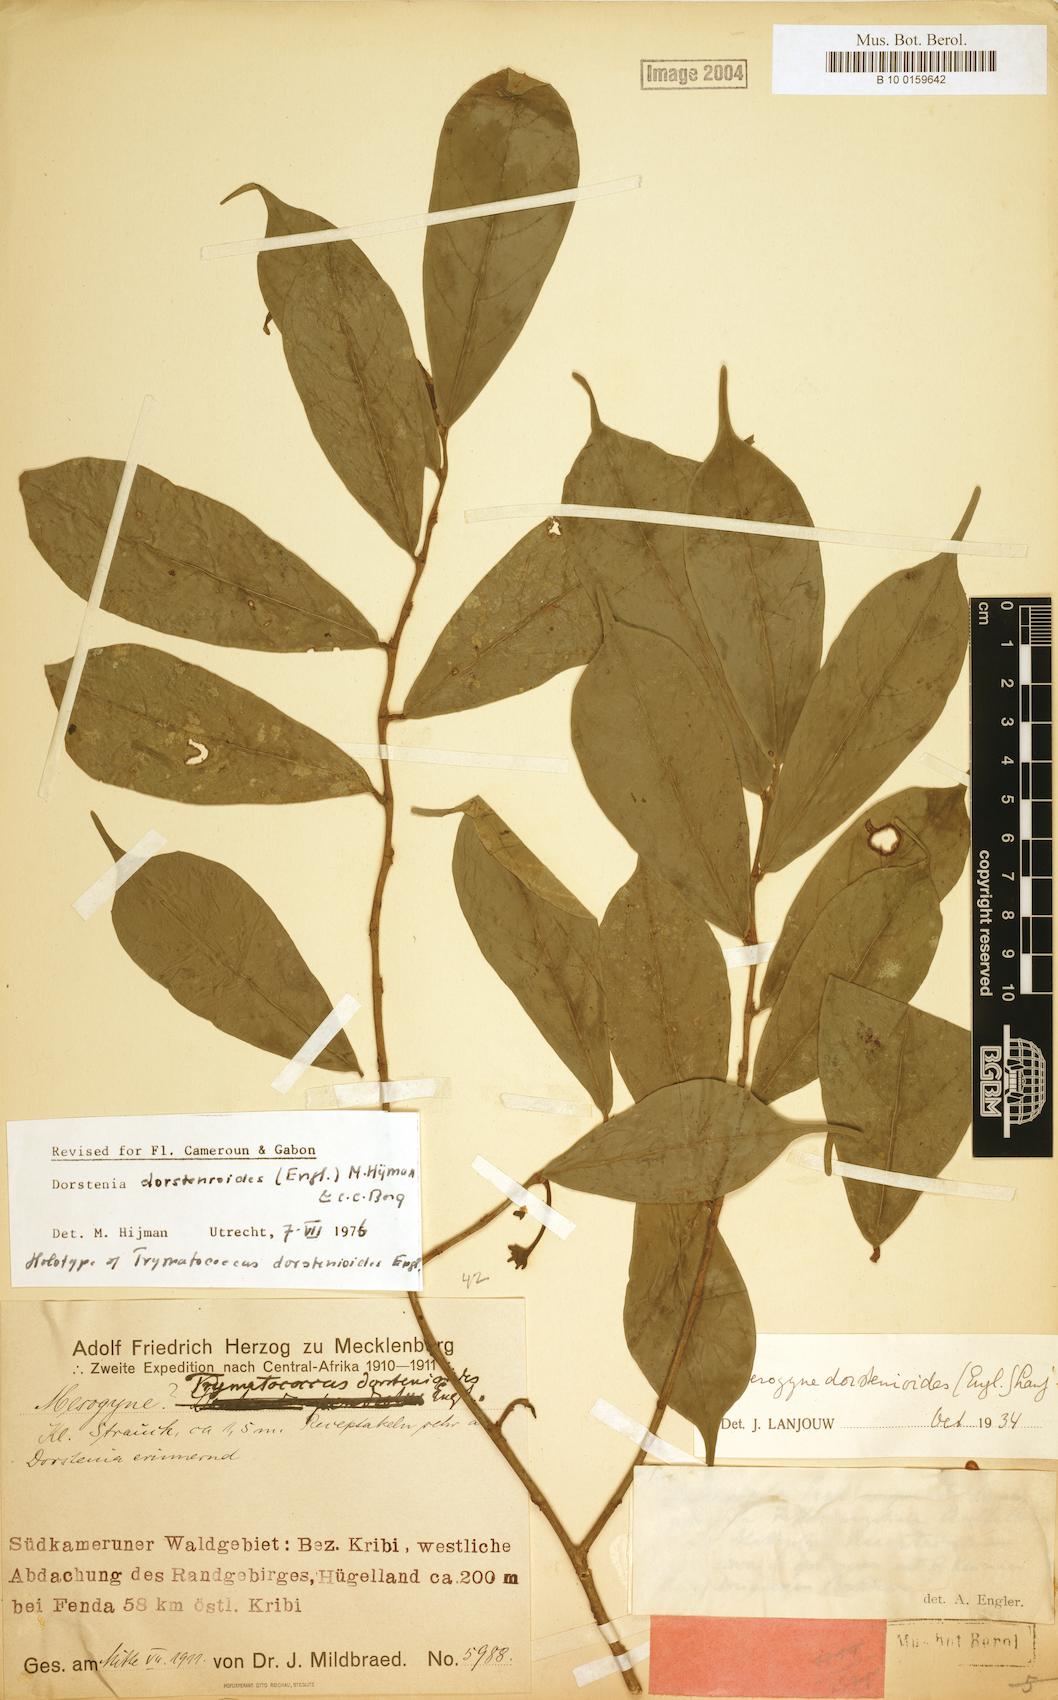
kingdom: Plantae
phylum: Tracheophyta
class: Magnoliopsida
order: Rosales
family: Moraceae
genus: Dorstenia
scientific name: Dorstenia dorstenioides
